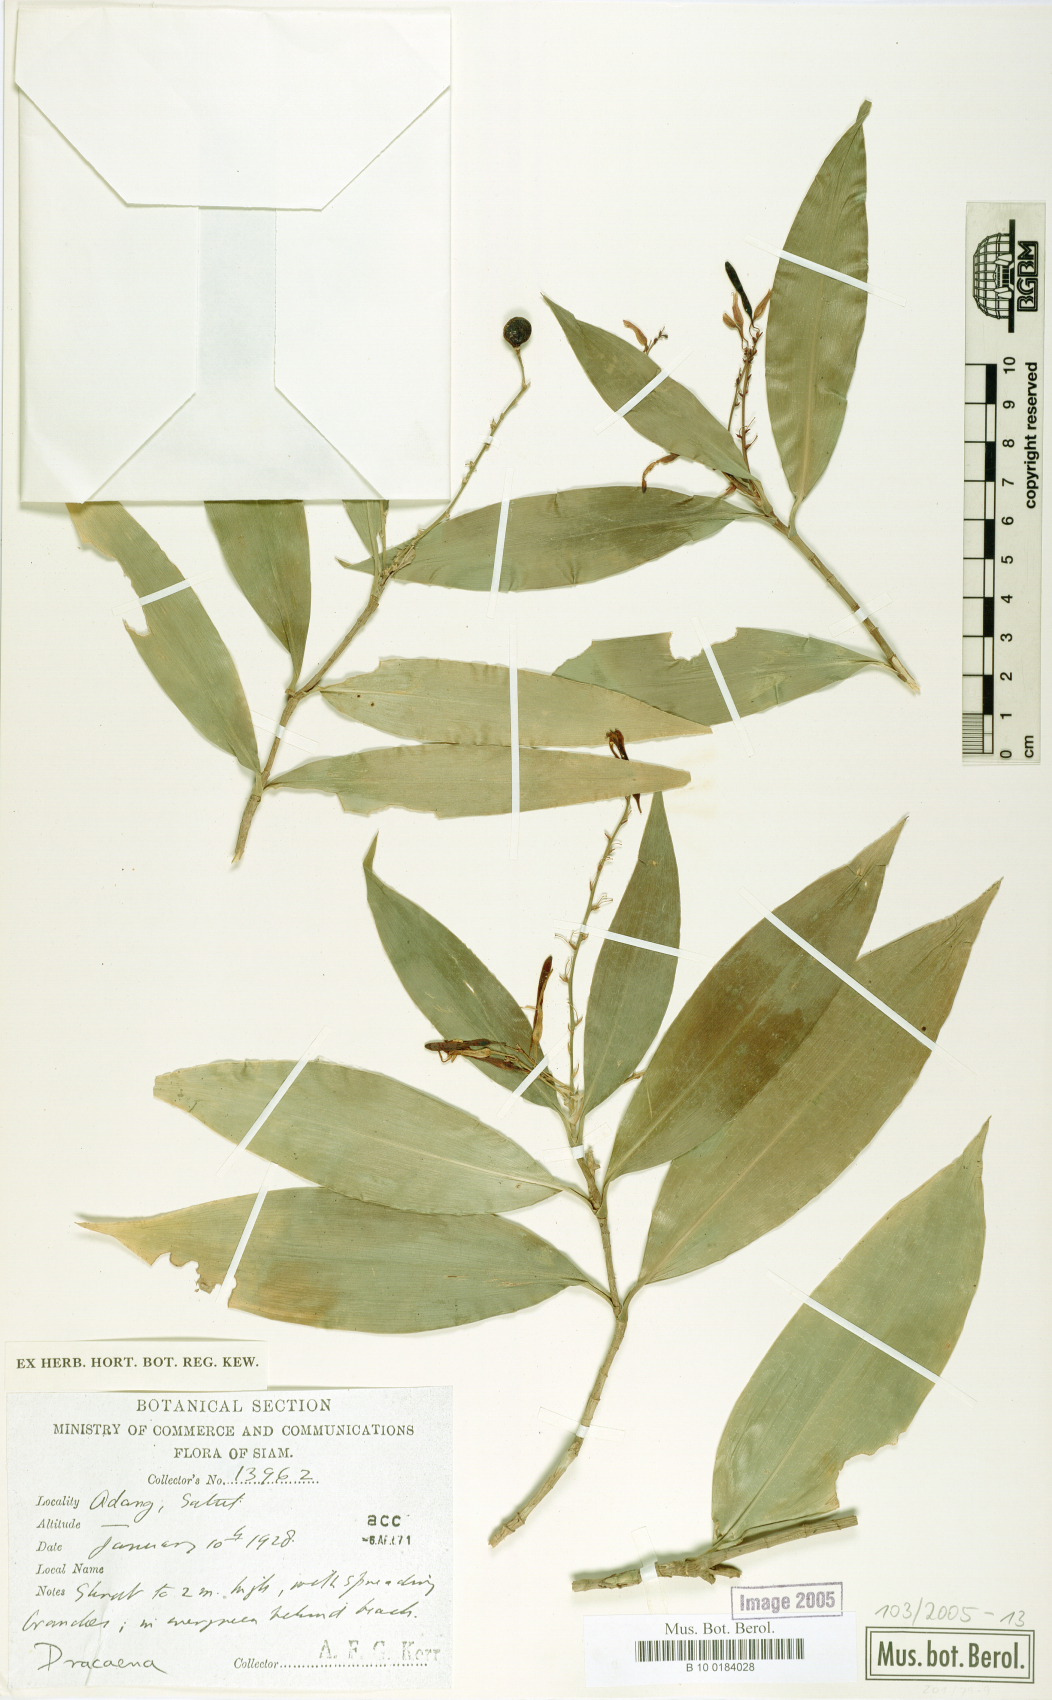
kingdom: Plantae
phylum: Tracheophyta
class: Liliopsida
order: Asparagales
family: Asparagaceae
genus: Dracaena
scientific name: Dracaena
